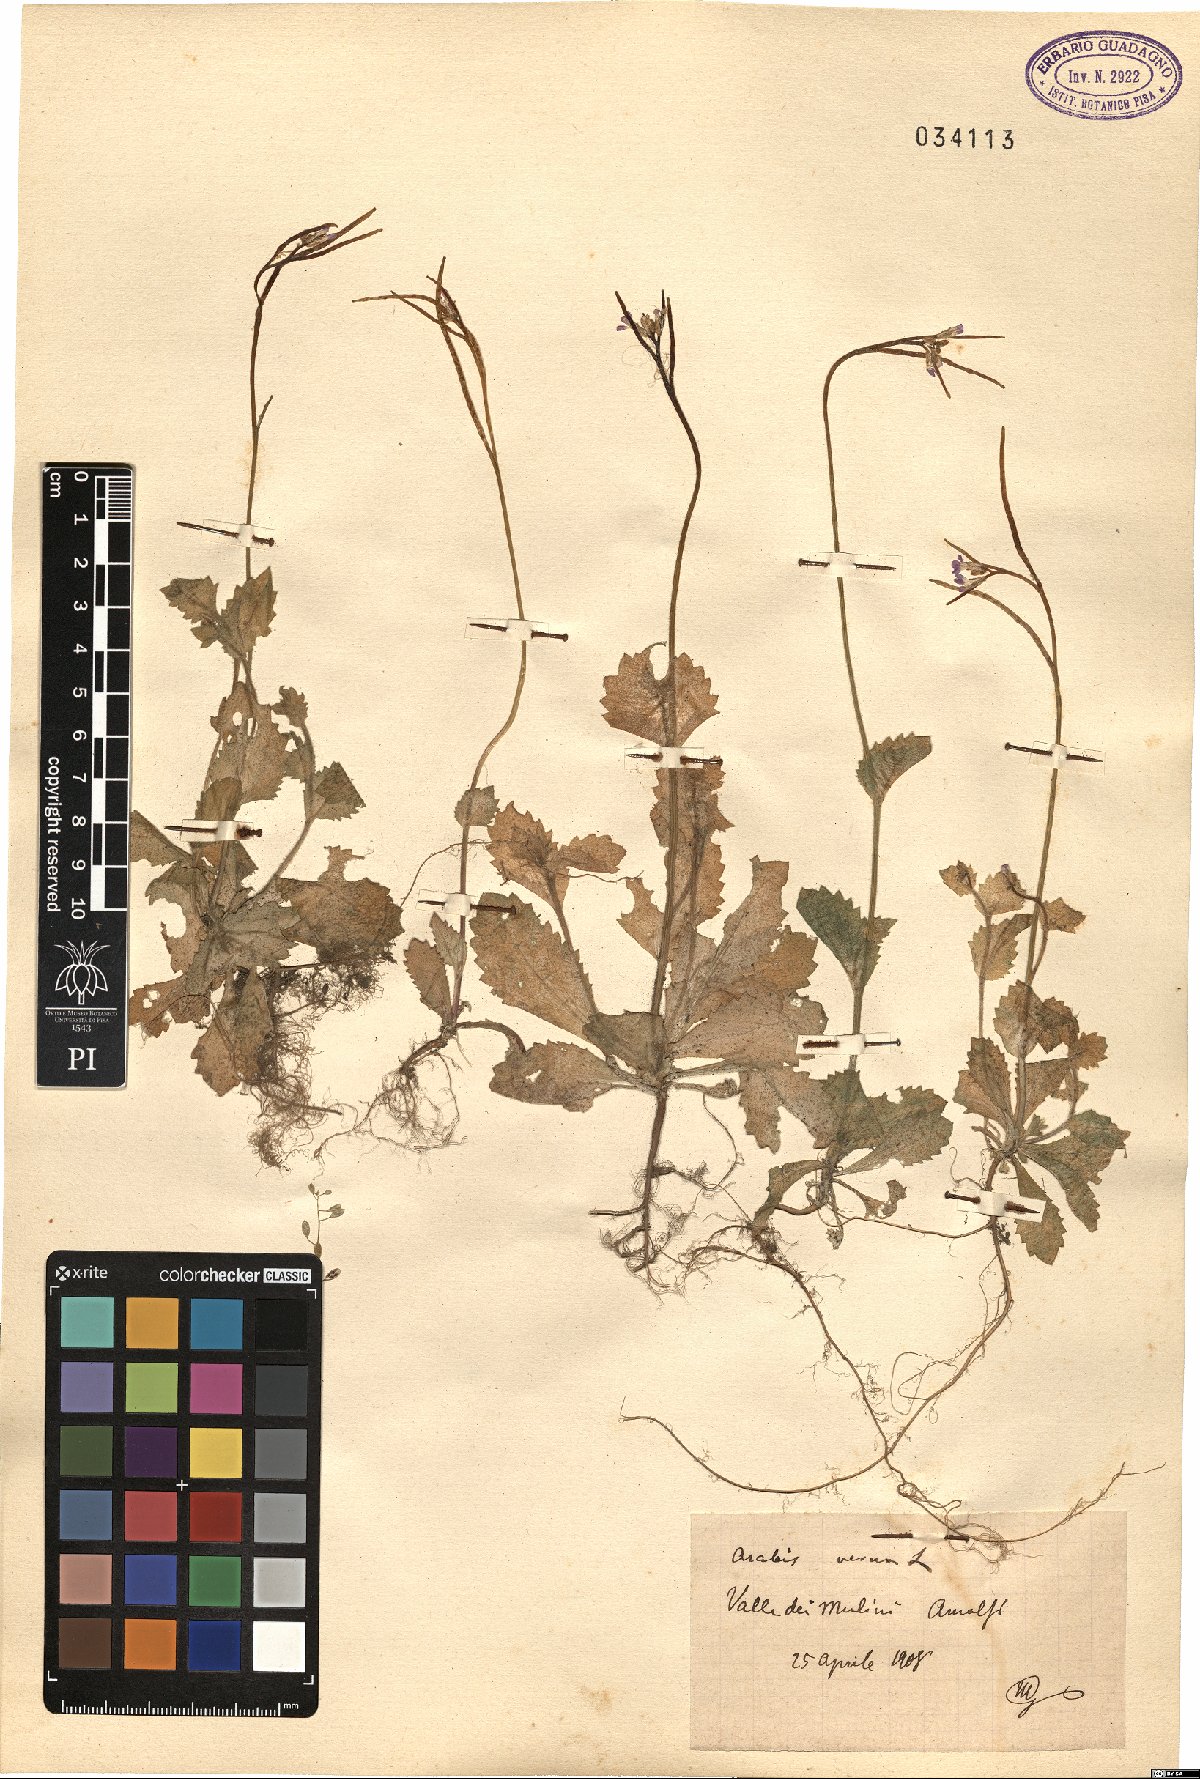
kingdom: Plantae
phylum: Tracheophyta
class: Magnoliopsida
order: Brassicales
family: Brassicaceae
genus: Arabis
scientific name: Arabis verna
